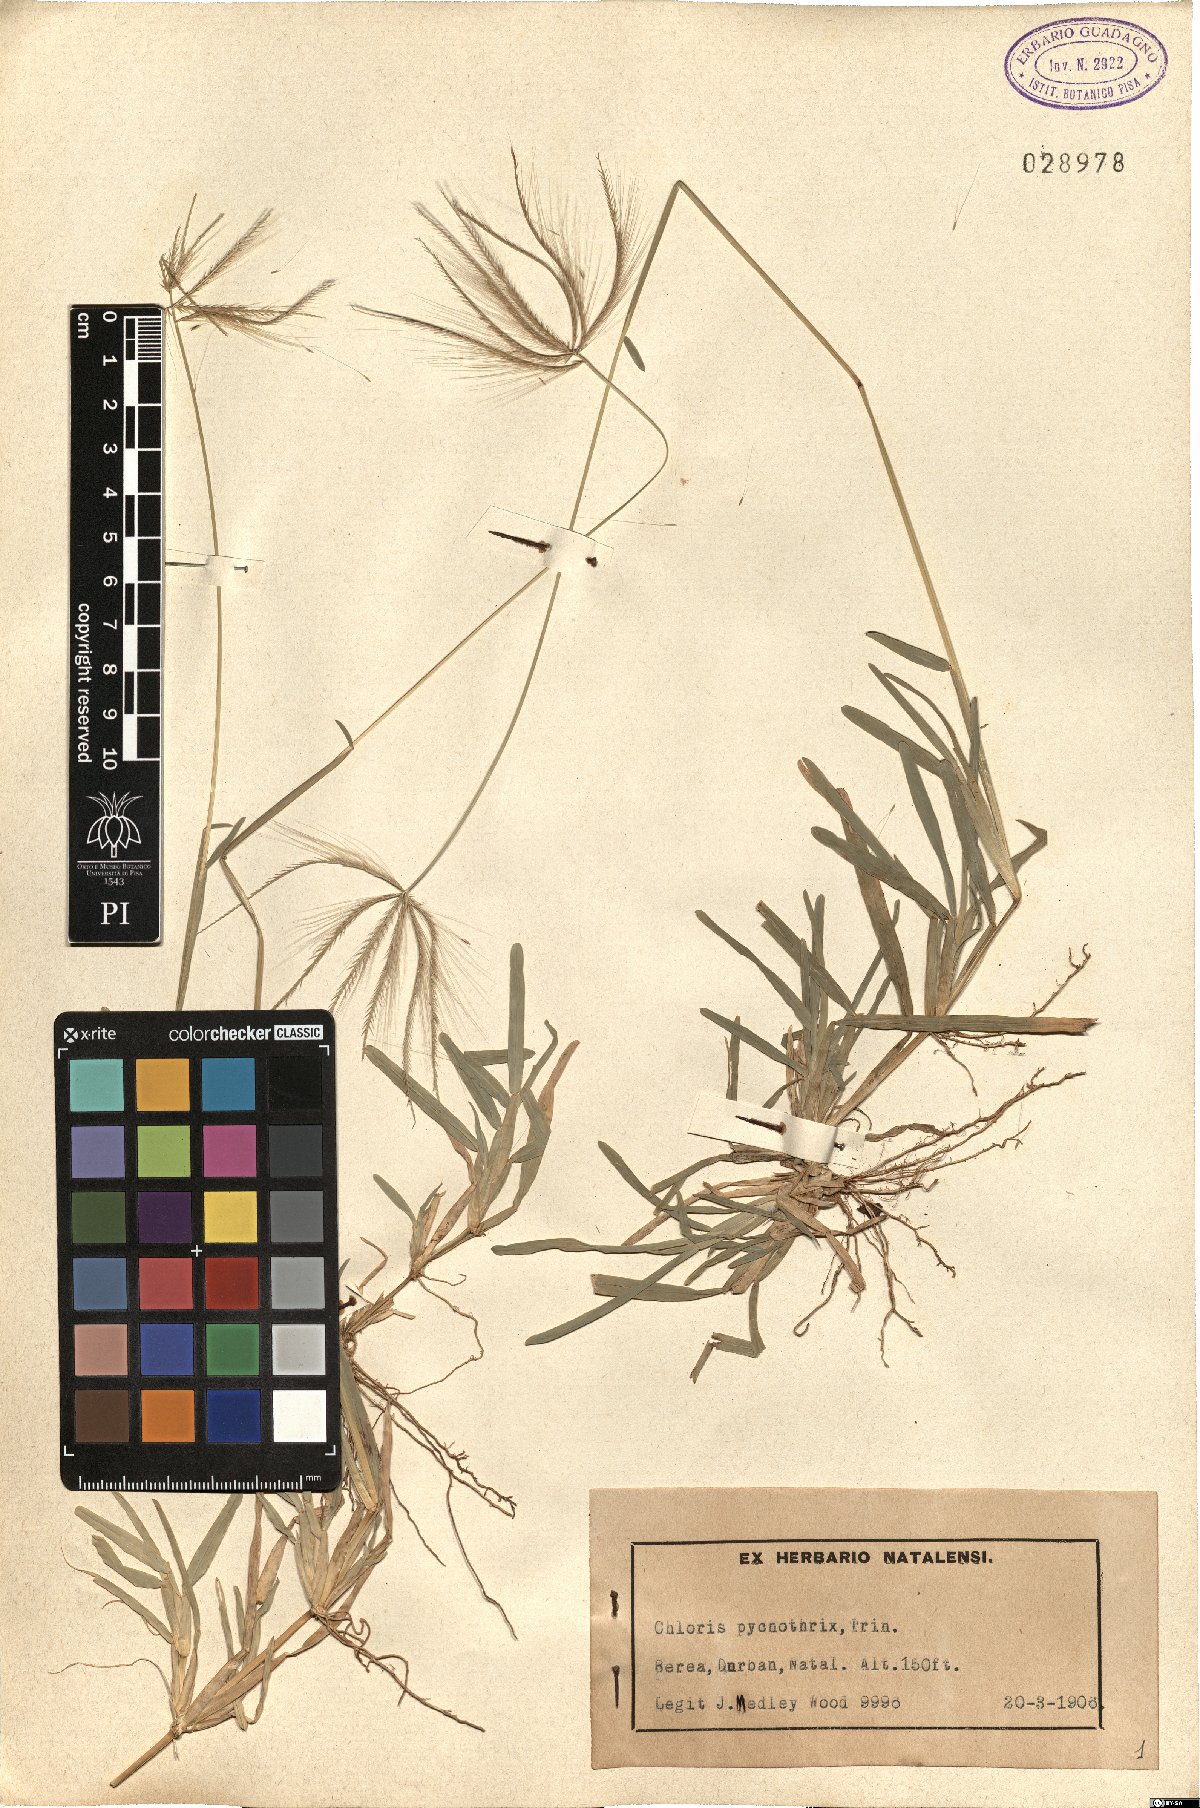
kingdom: Plantae
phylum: Tracheophyta
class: Liliopsida
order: Poales
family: Poaceae
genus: Chloris
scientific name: Chloris pycnothrix
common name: Spiderweb chloris
